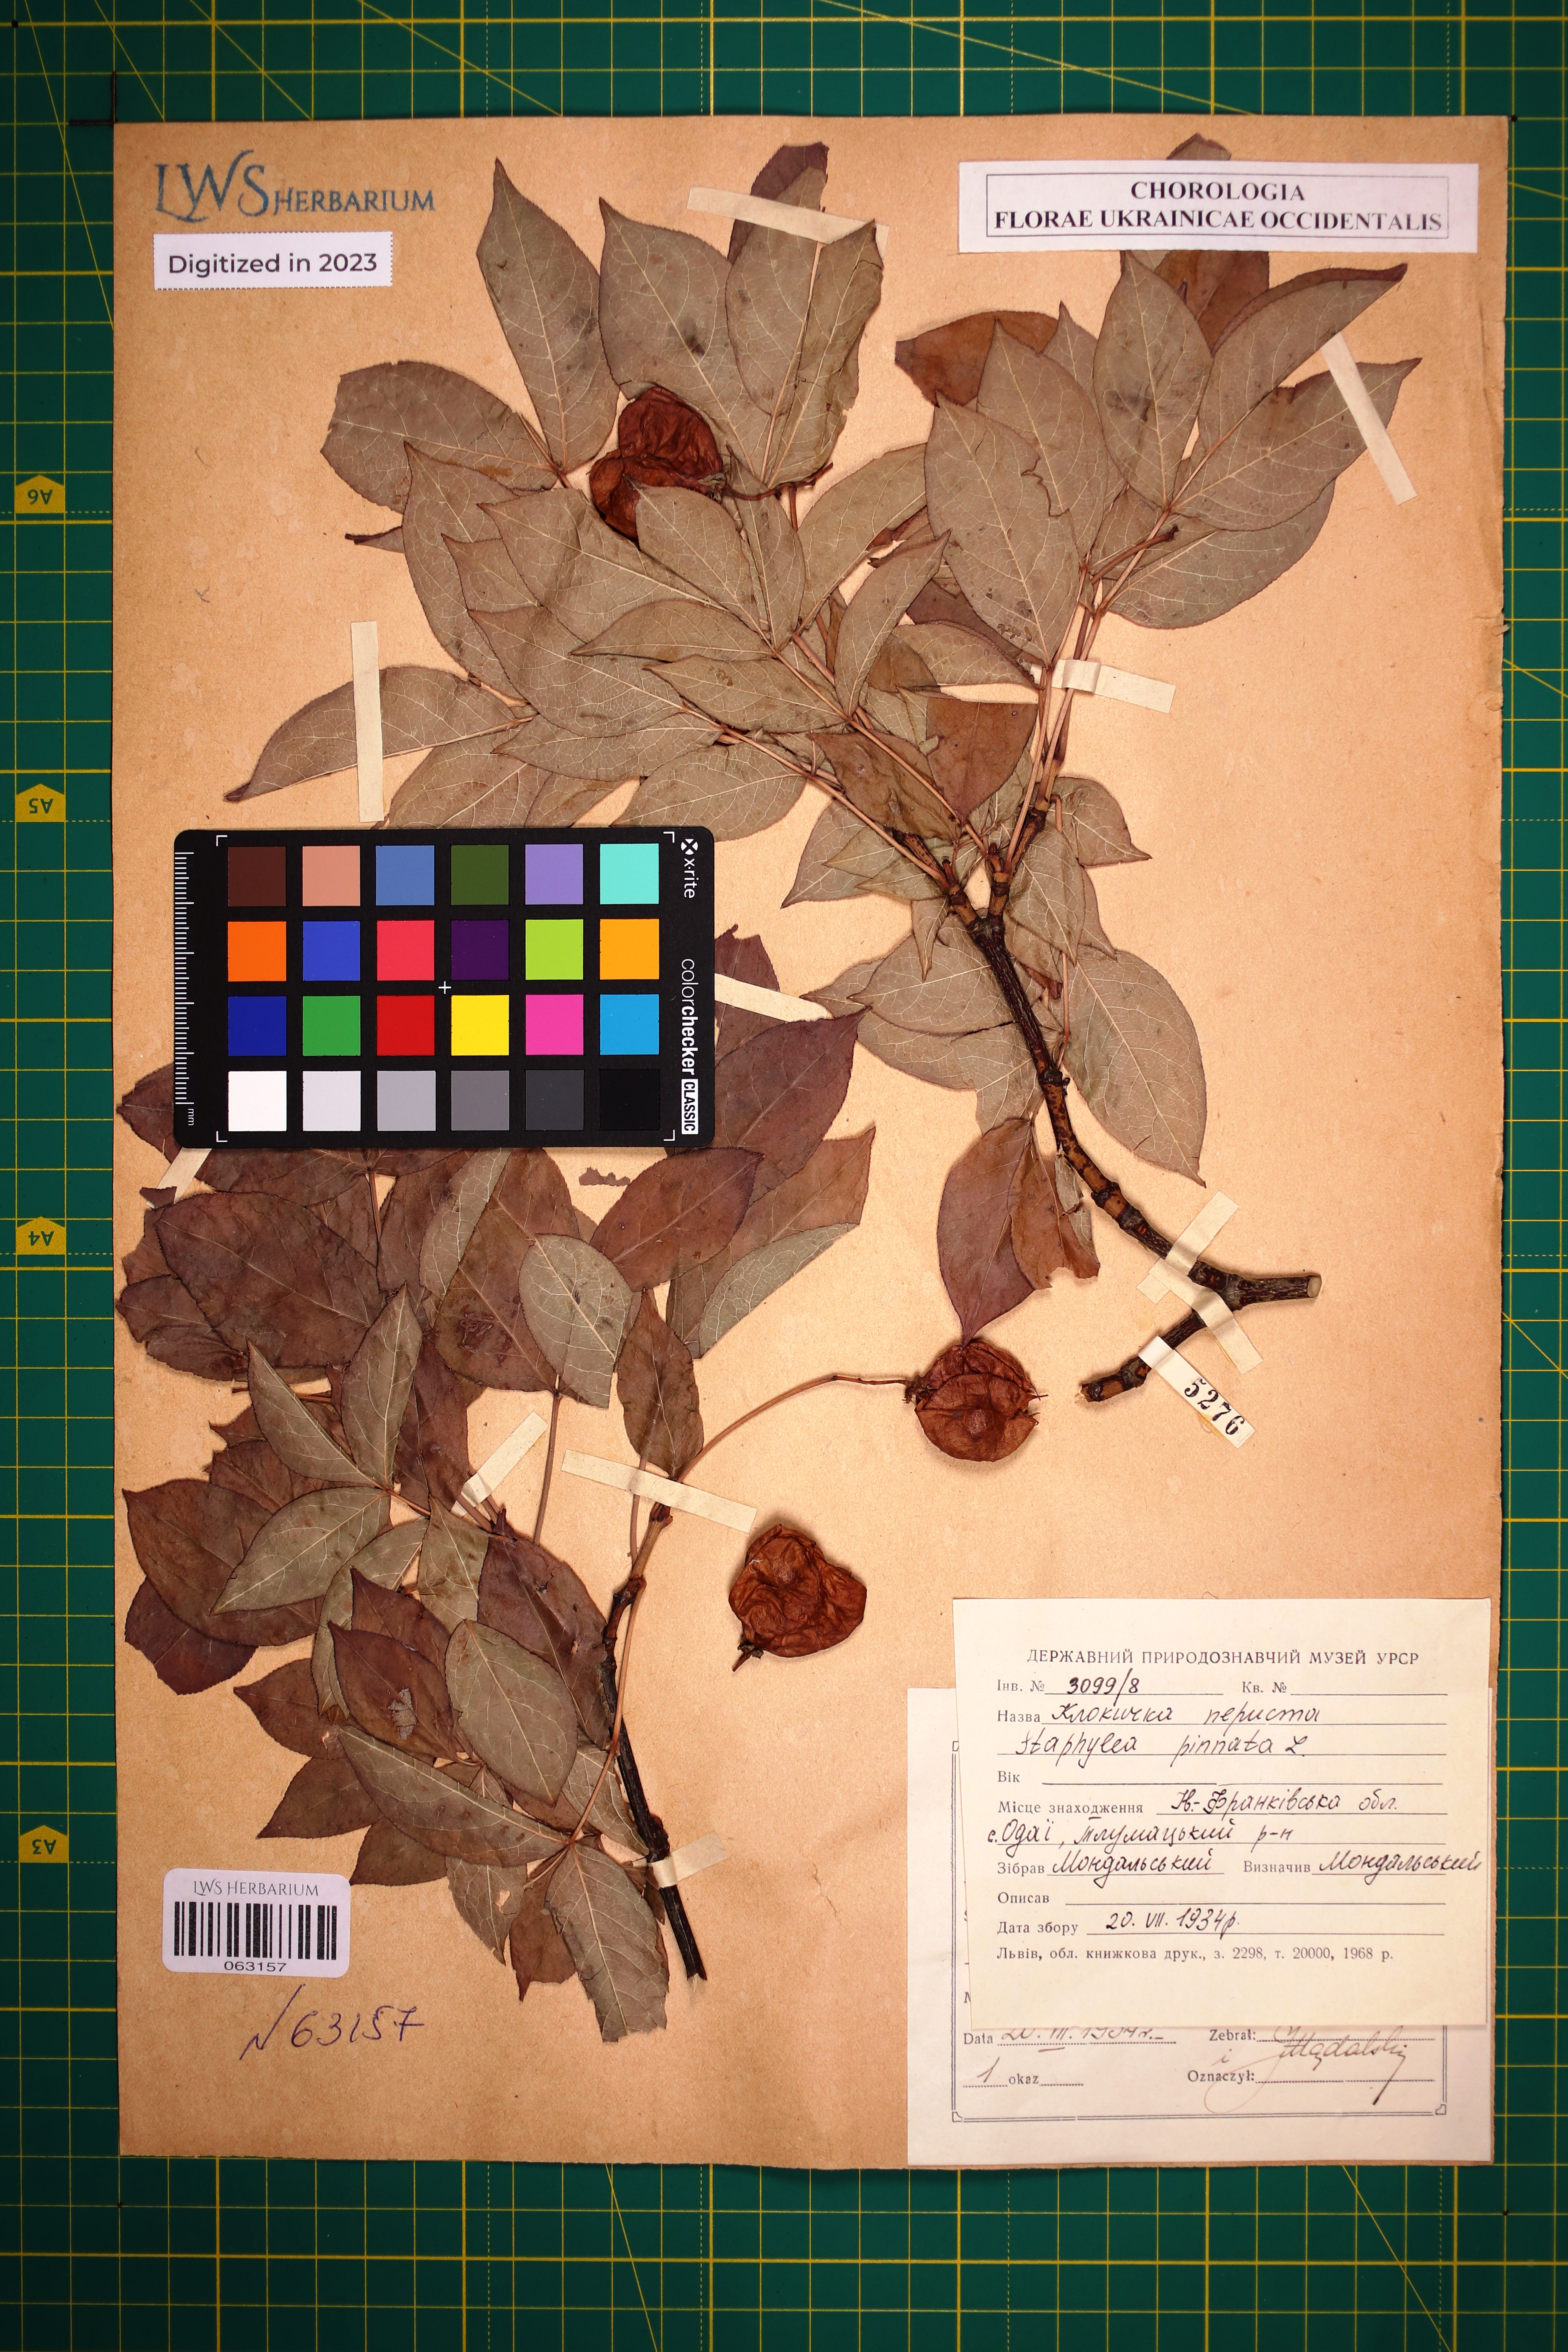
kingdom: Plantae
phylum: Tracheophyta
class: Magnoliopsida
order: Crossosomatales
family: Staphyleaceae
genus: Staphylea
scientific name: Staphylea pinnata
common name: Bladdernut
